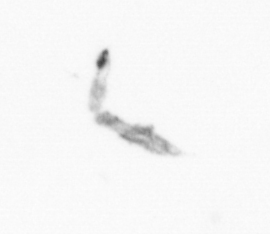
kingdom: Chromista
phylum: Ochrophyta
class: Bacillariophyceae
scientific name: Bacillariophyceae
